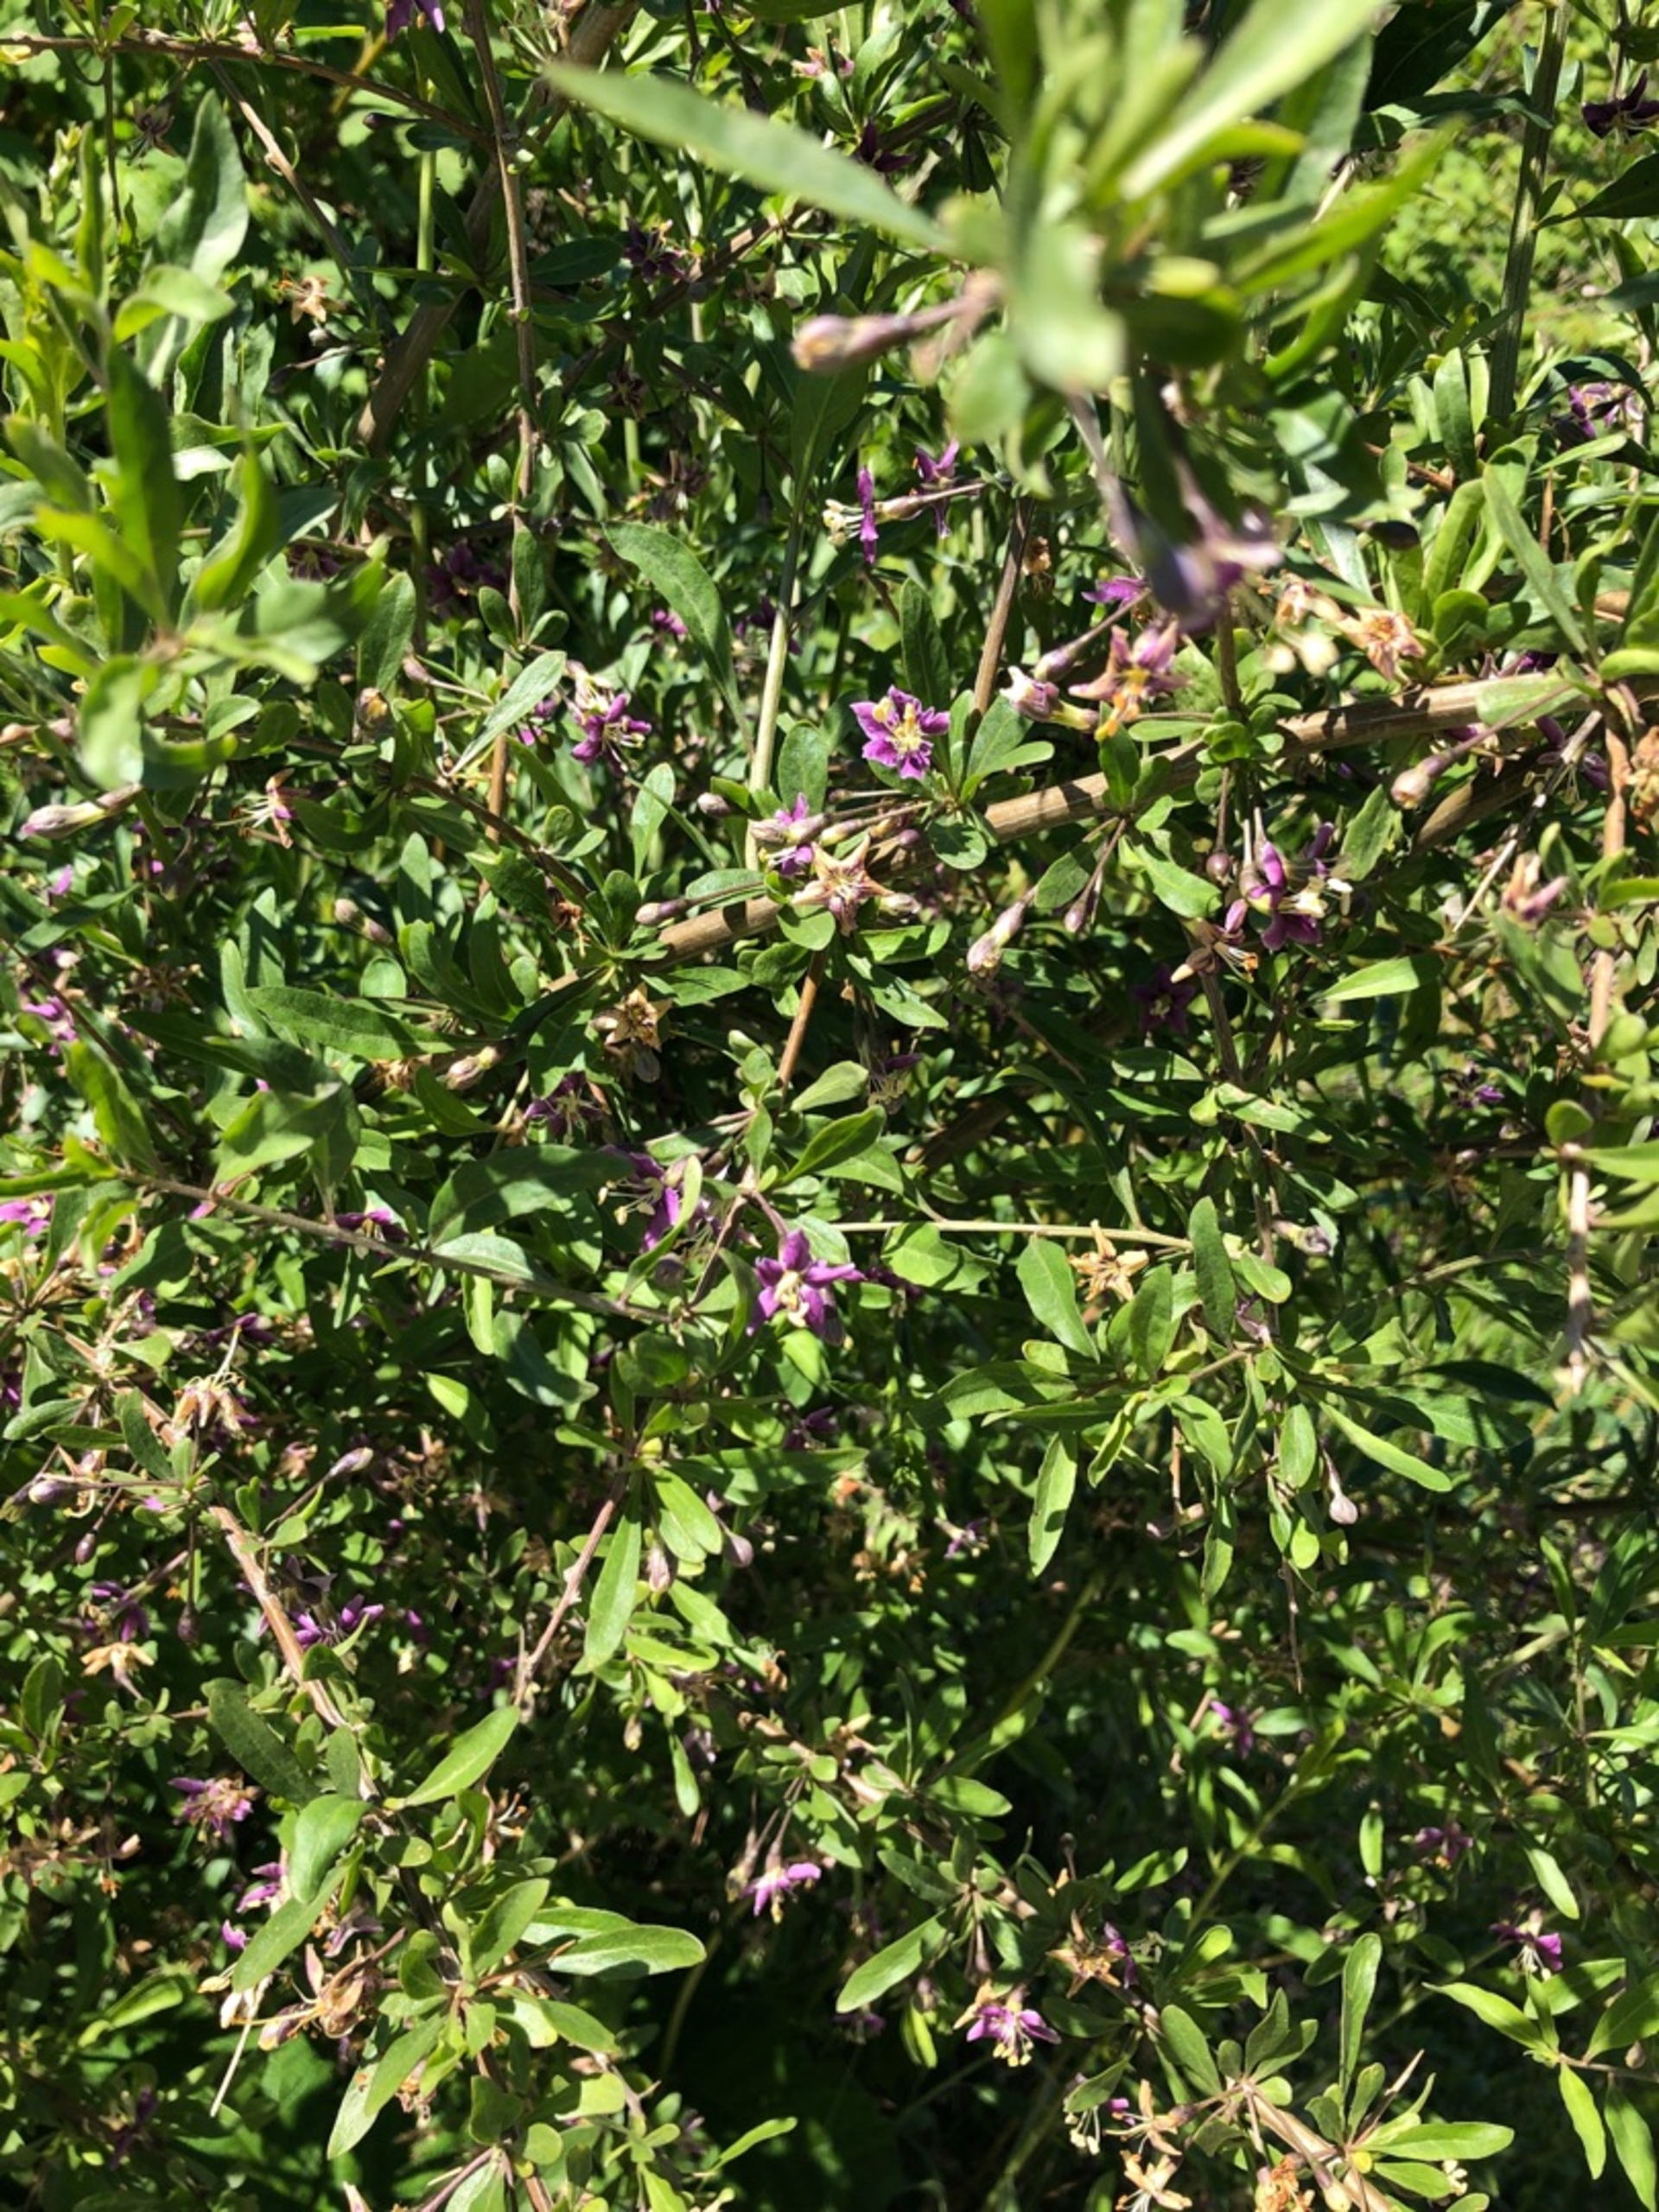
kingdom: Plantae
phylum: Tracheophyta
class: Magnoliopsida
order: Solanales
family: Solanaceae
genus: Lycium
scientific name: Lycium barbarum
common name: Bukketorn
